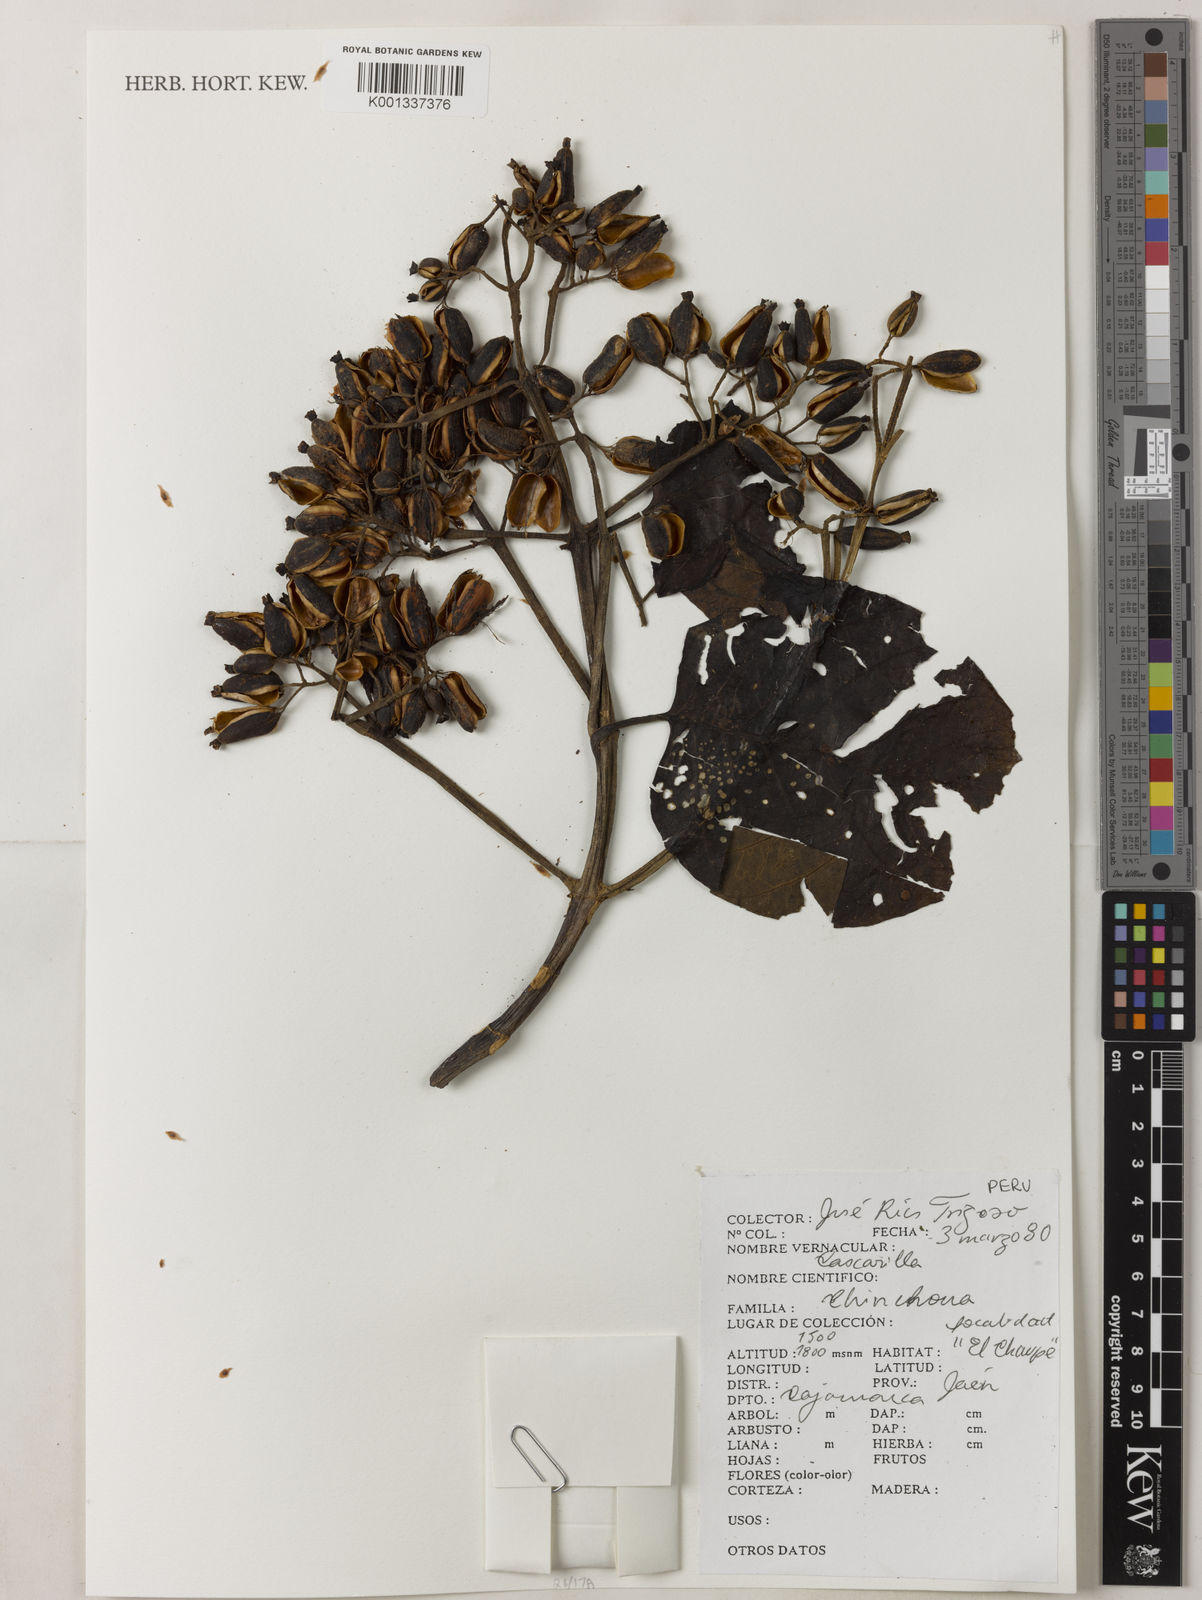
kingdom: Plantae
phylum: Tracheophyta
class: Magnoliopsida
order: Gentianales
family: Rubiaceae
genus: Cinchona
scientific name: Cinchona
